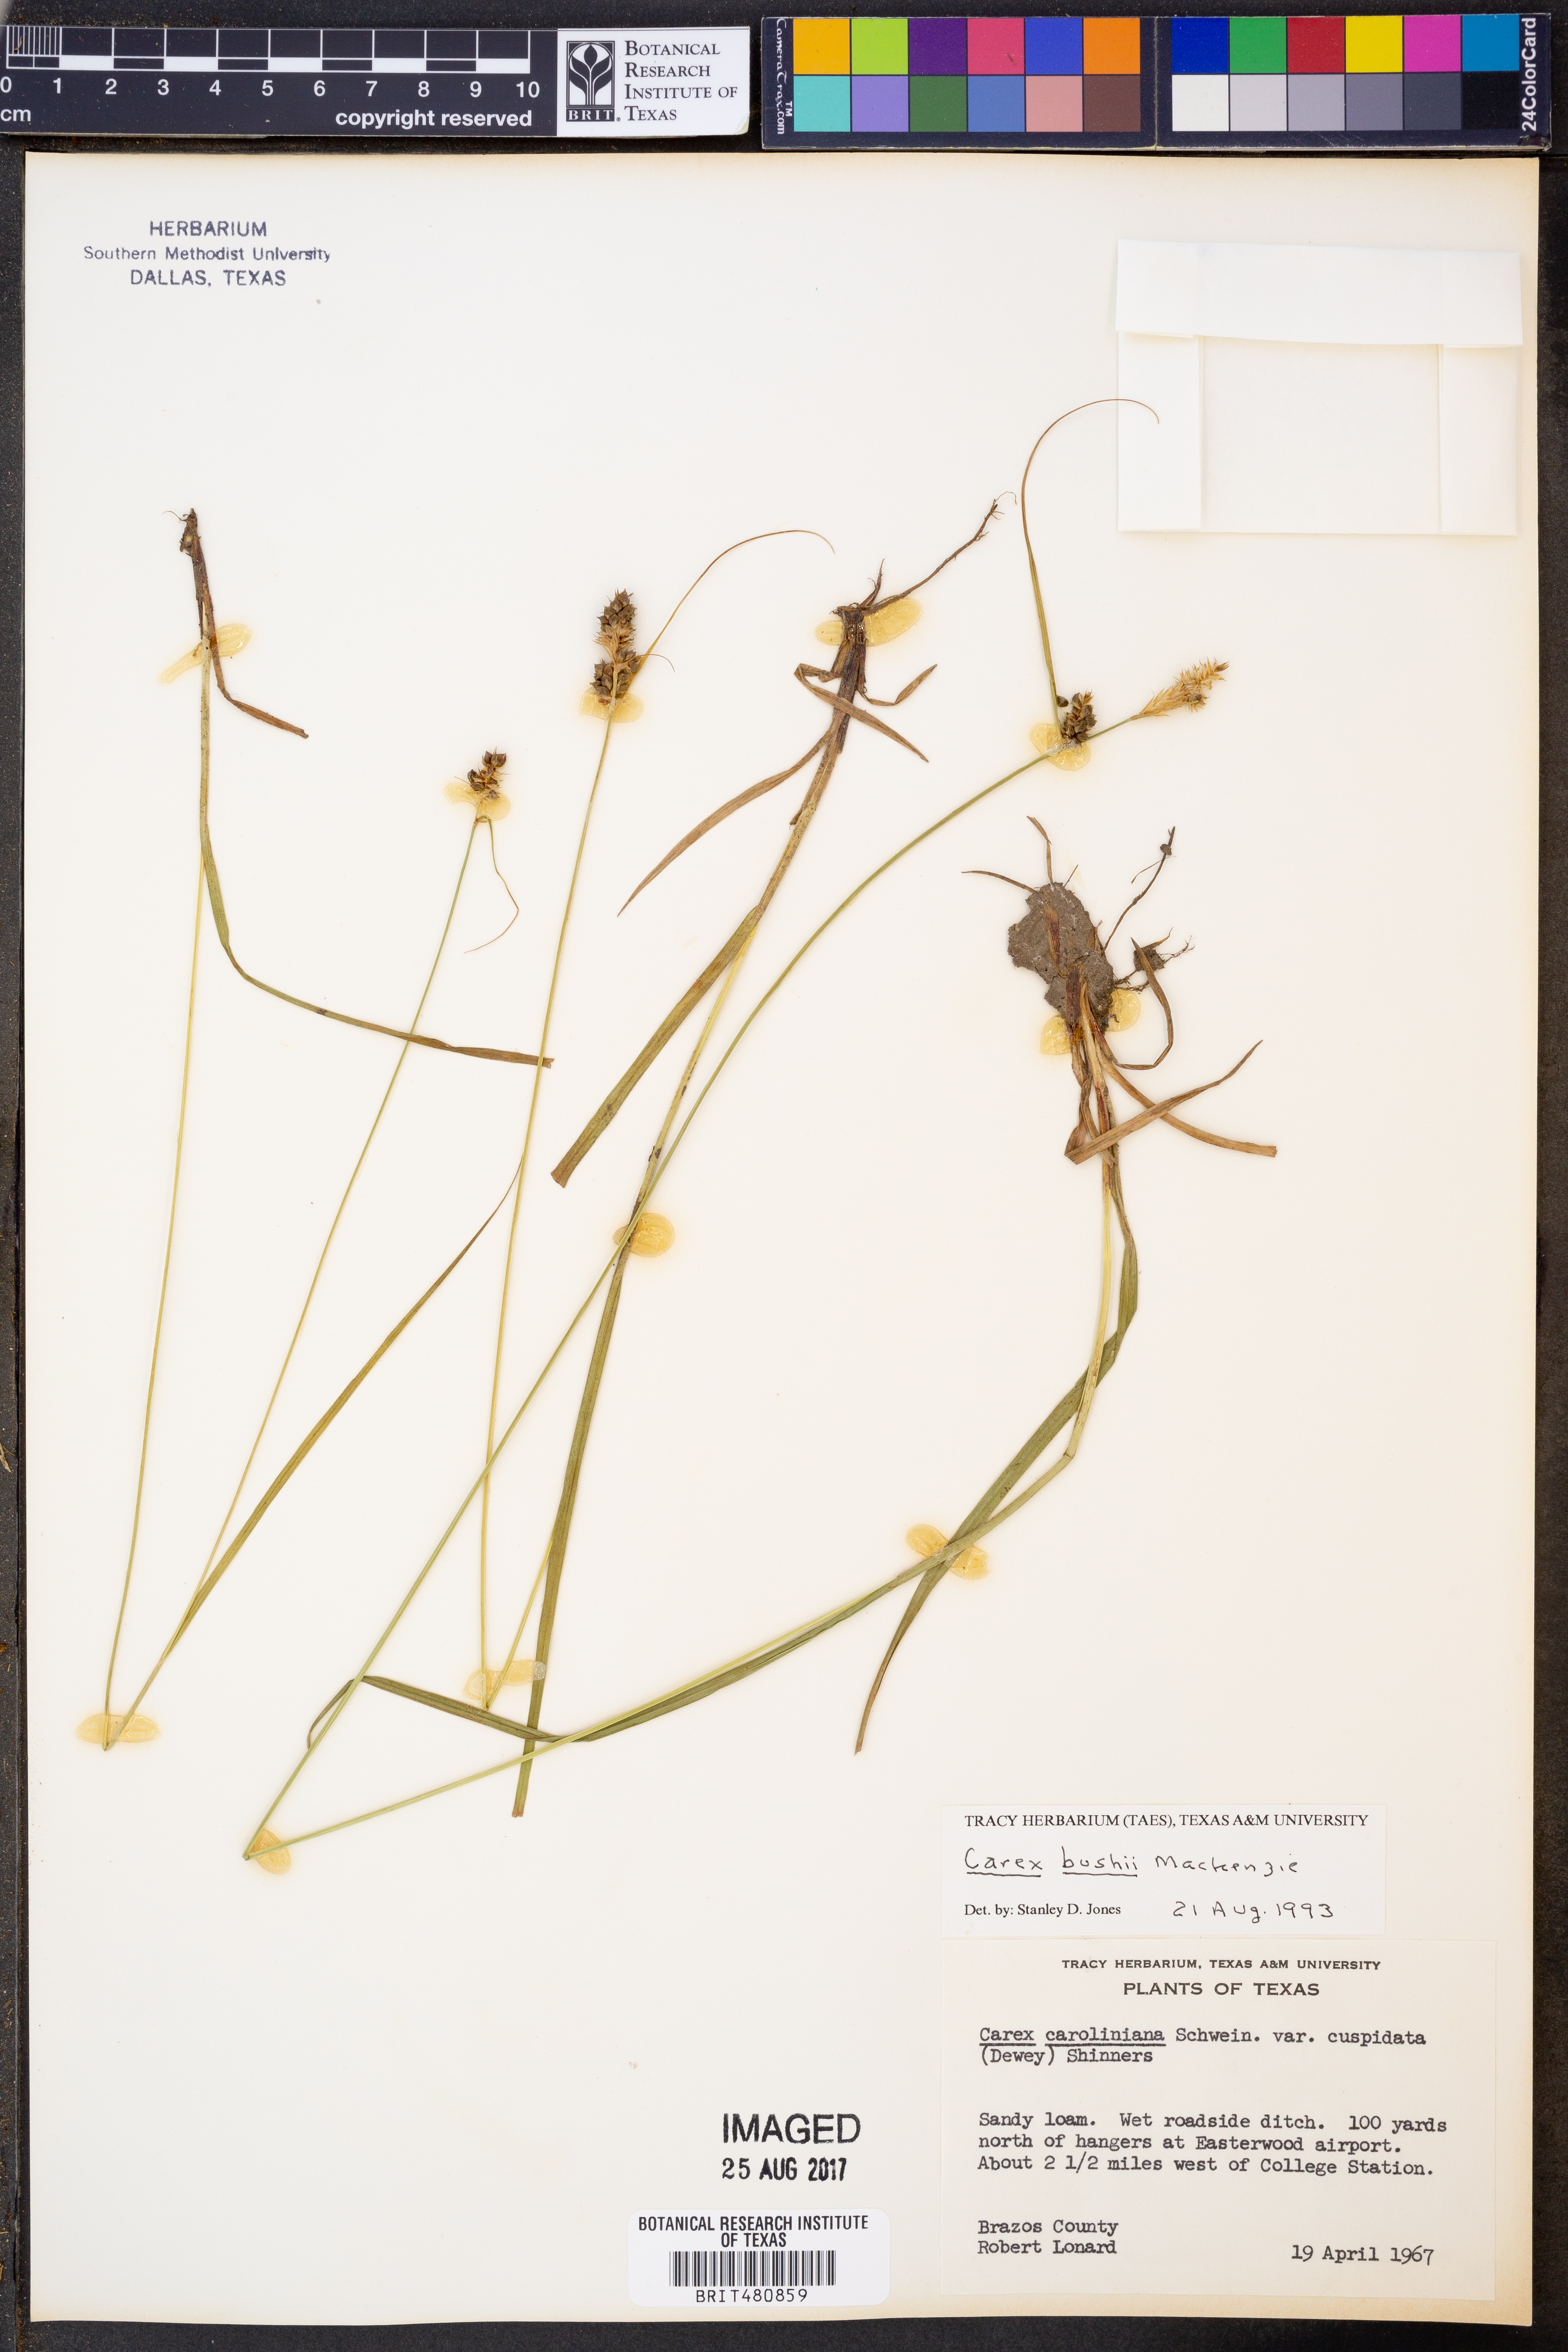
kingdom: Plantae
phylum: Tracheophyta
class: Liliopsida
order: Poales
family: Cyperaceae
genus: Carex
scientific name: Carex bushii
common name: Bush's sedge
